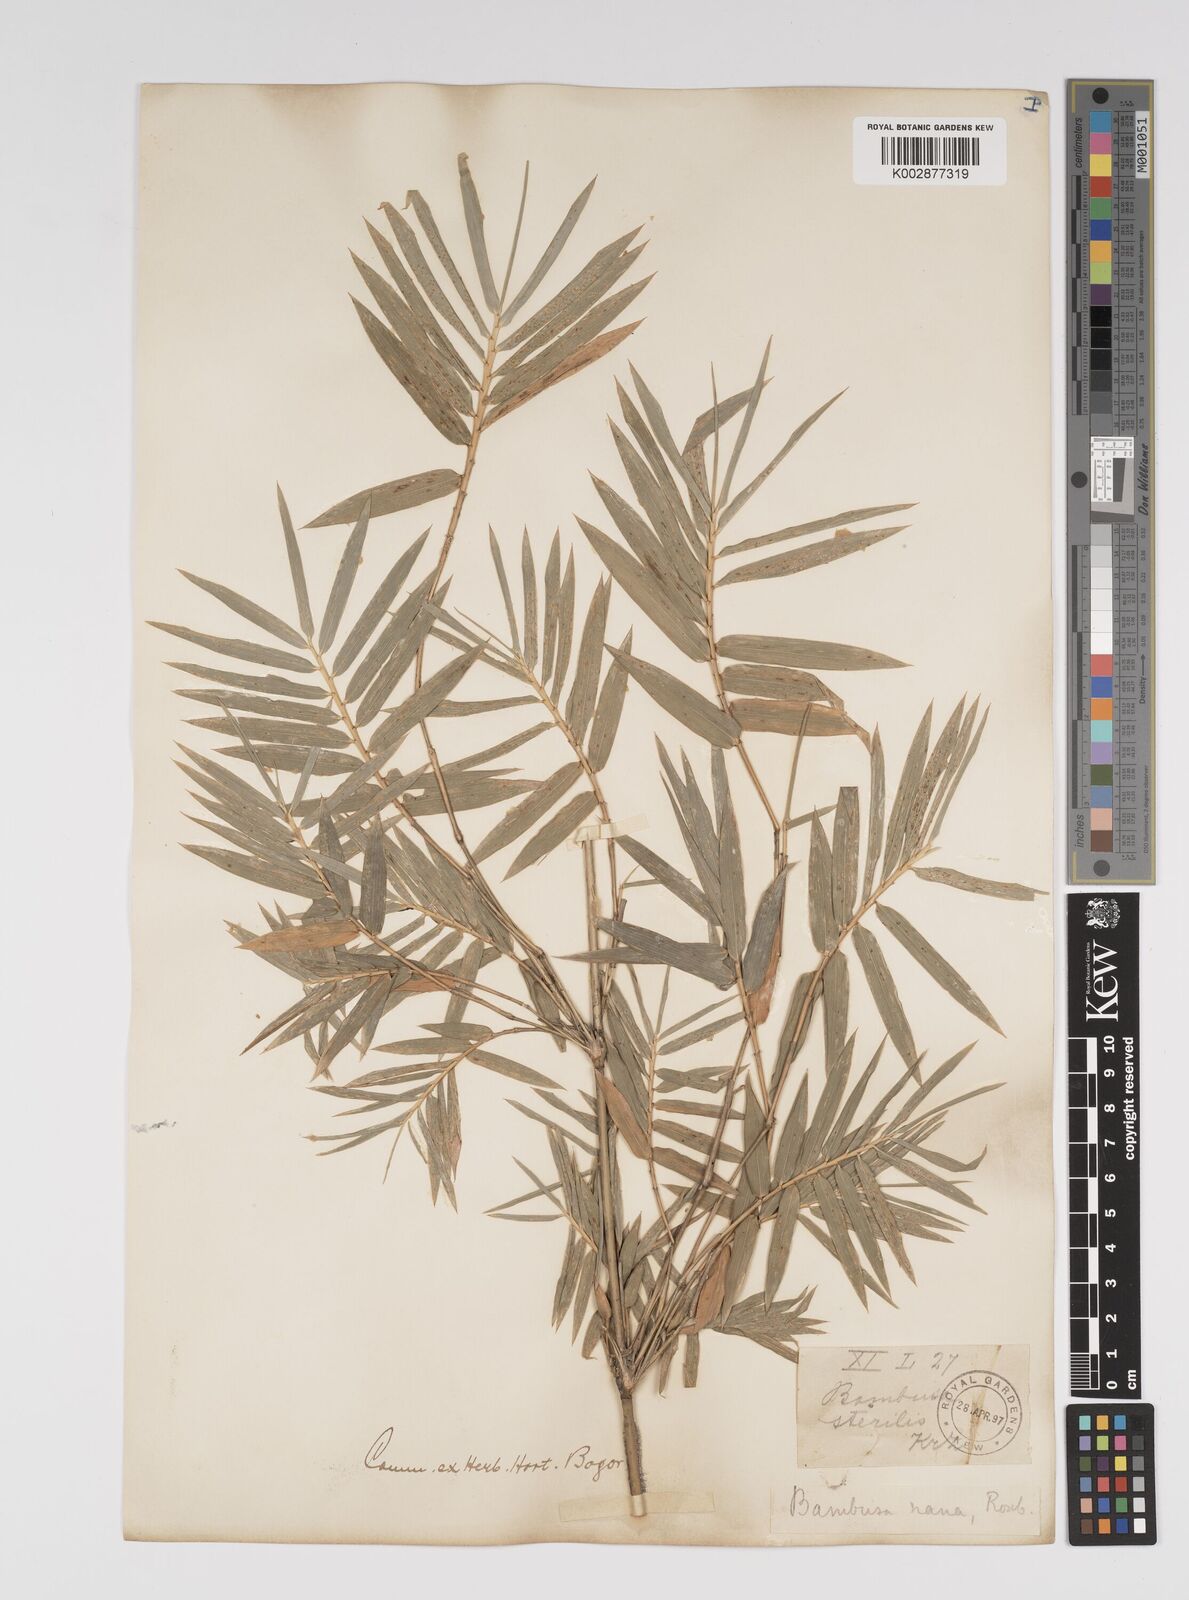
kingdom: Plantae
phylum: Tracheophyta
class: Liliopsida
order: Poales
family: Poaceae
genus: Bambusa
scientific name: Bambusa multiplex
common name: Hedge bamboo
